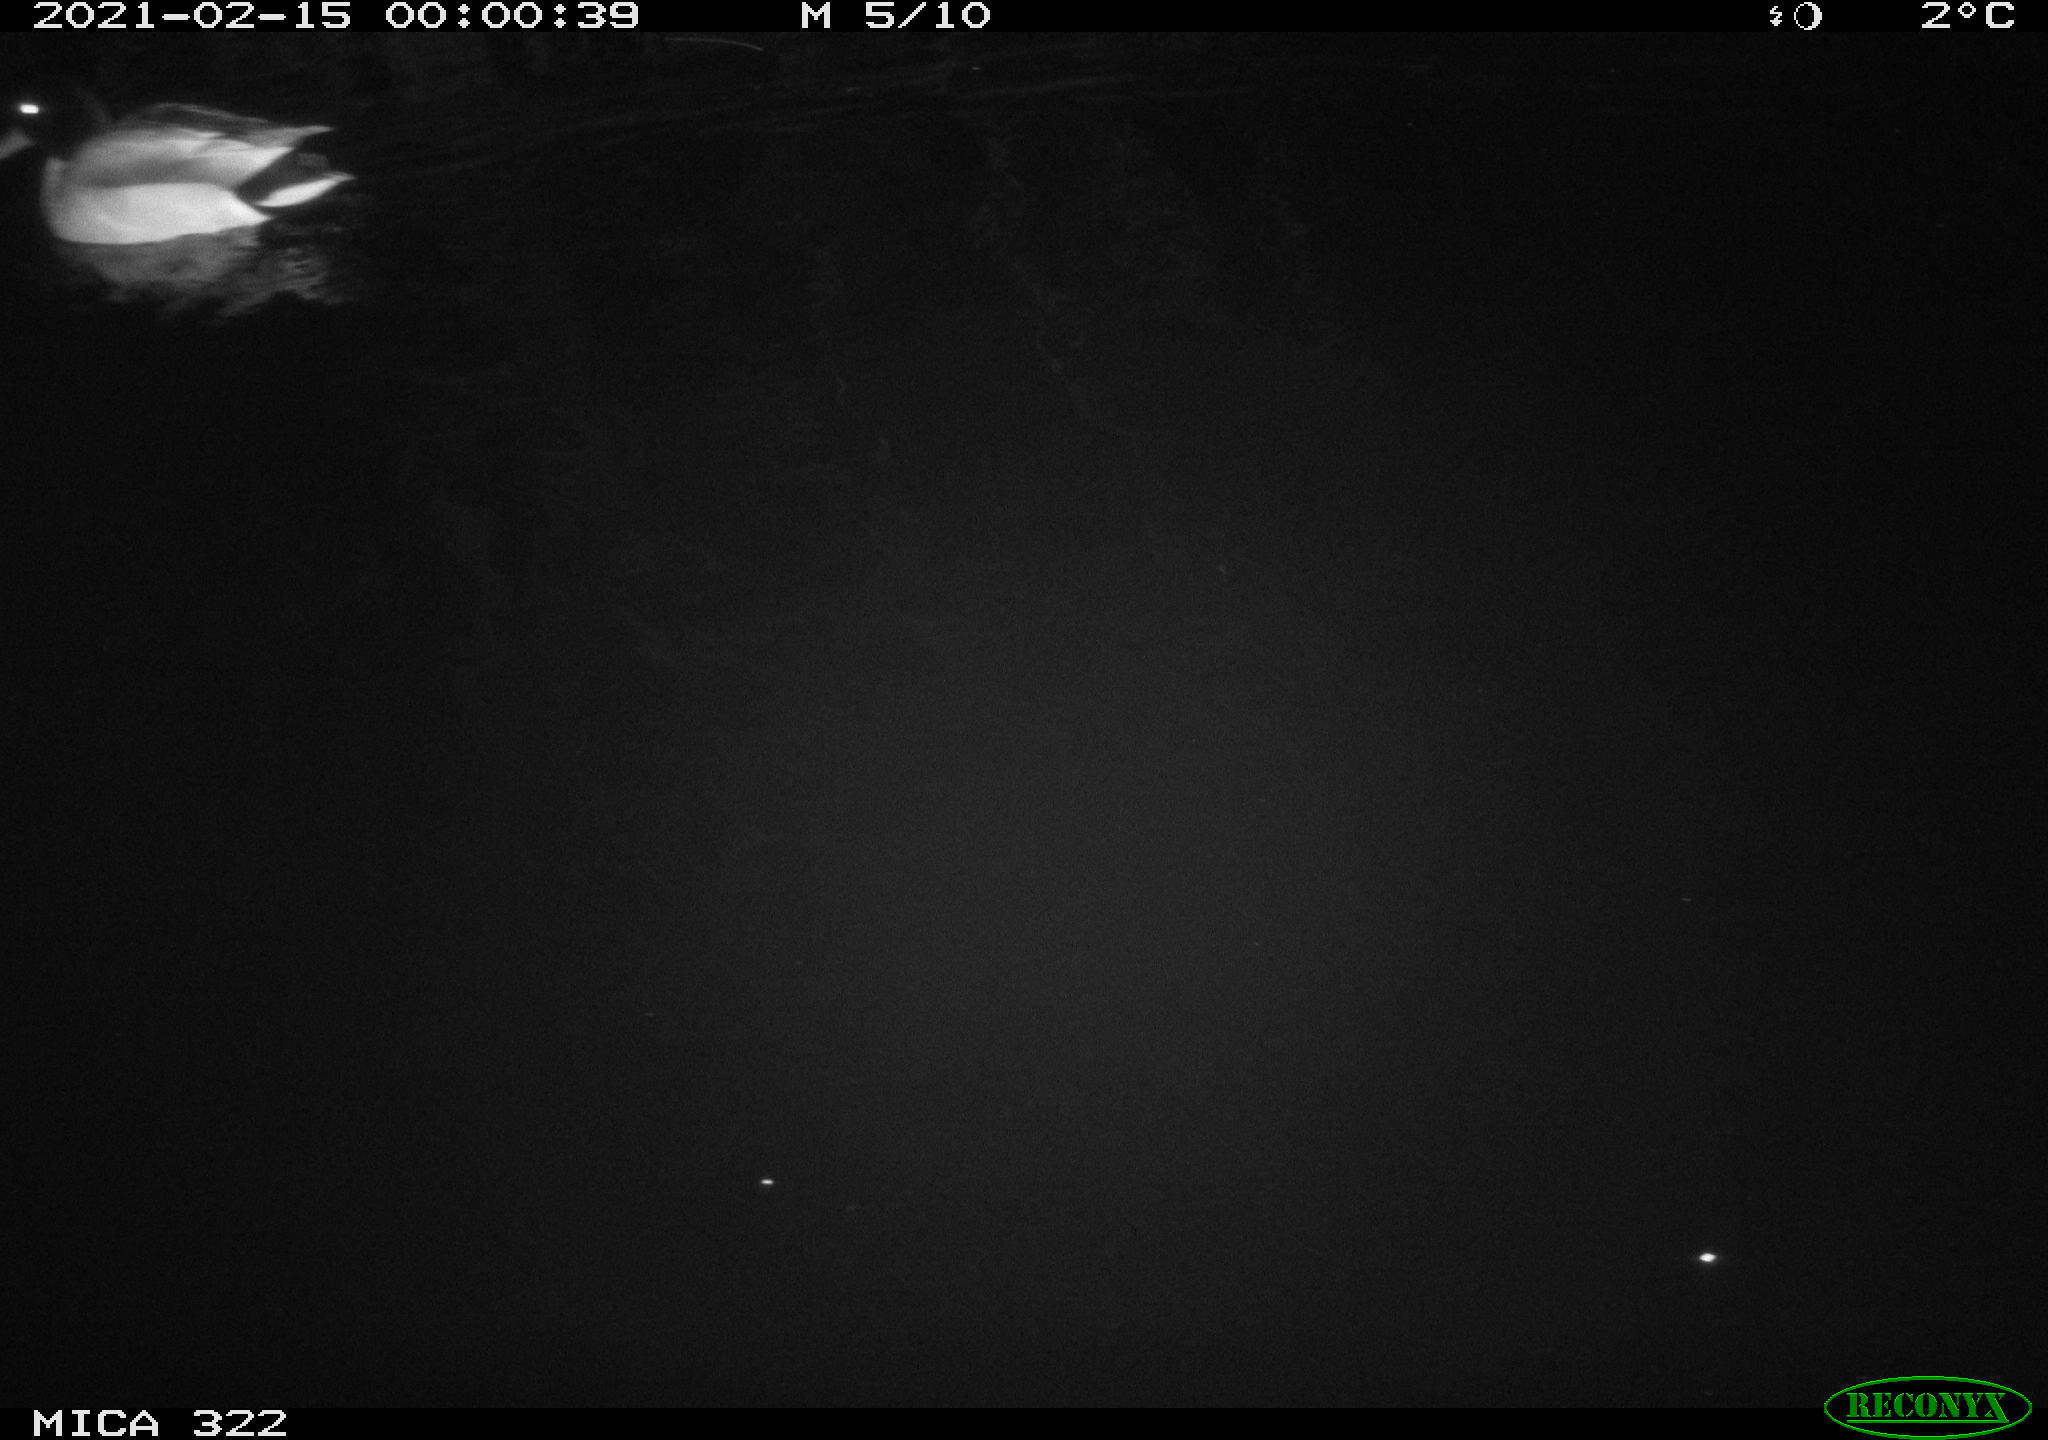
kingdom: Animalia
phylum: Chordata
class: Aves
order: Anseriformes
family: Anatidae
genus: Anas
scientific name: Anas platyrhynchos
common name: Mallard
